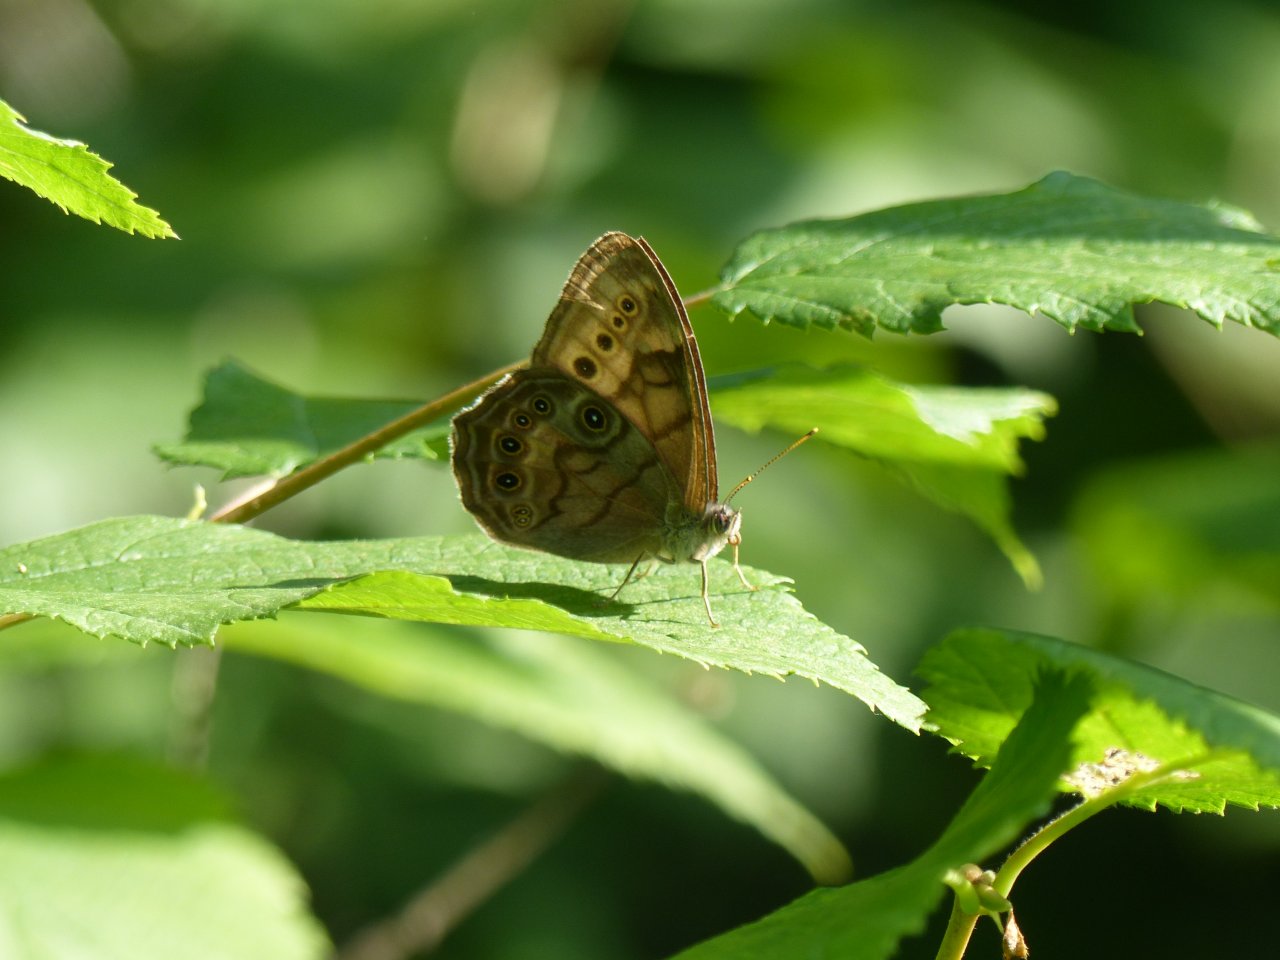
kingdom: Animalia
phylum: Arthropoda
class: Insecta
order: Lepidoptera
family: Nymphalidae
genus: Lethe
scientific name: Lethe anthedon
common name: Northern Pearly-Eye
